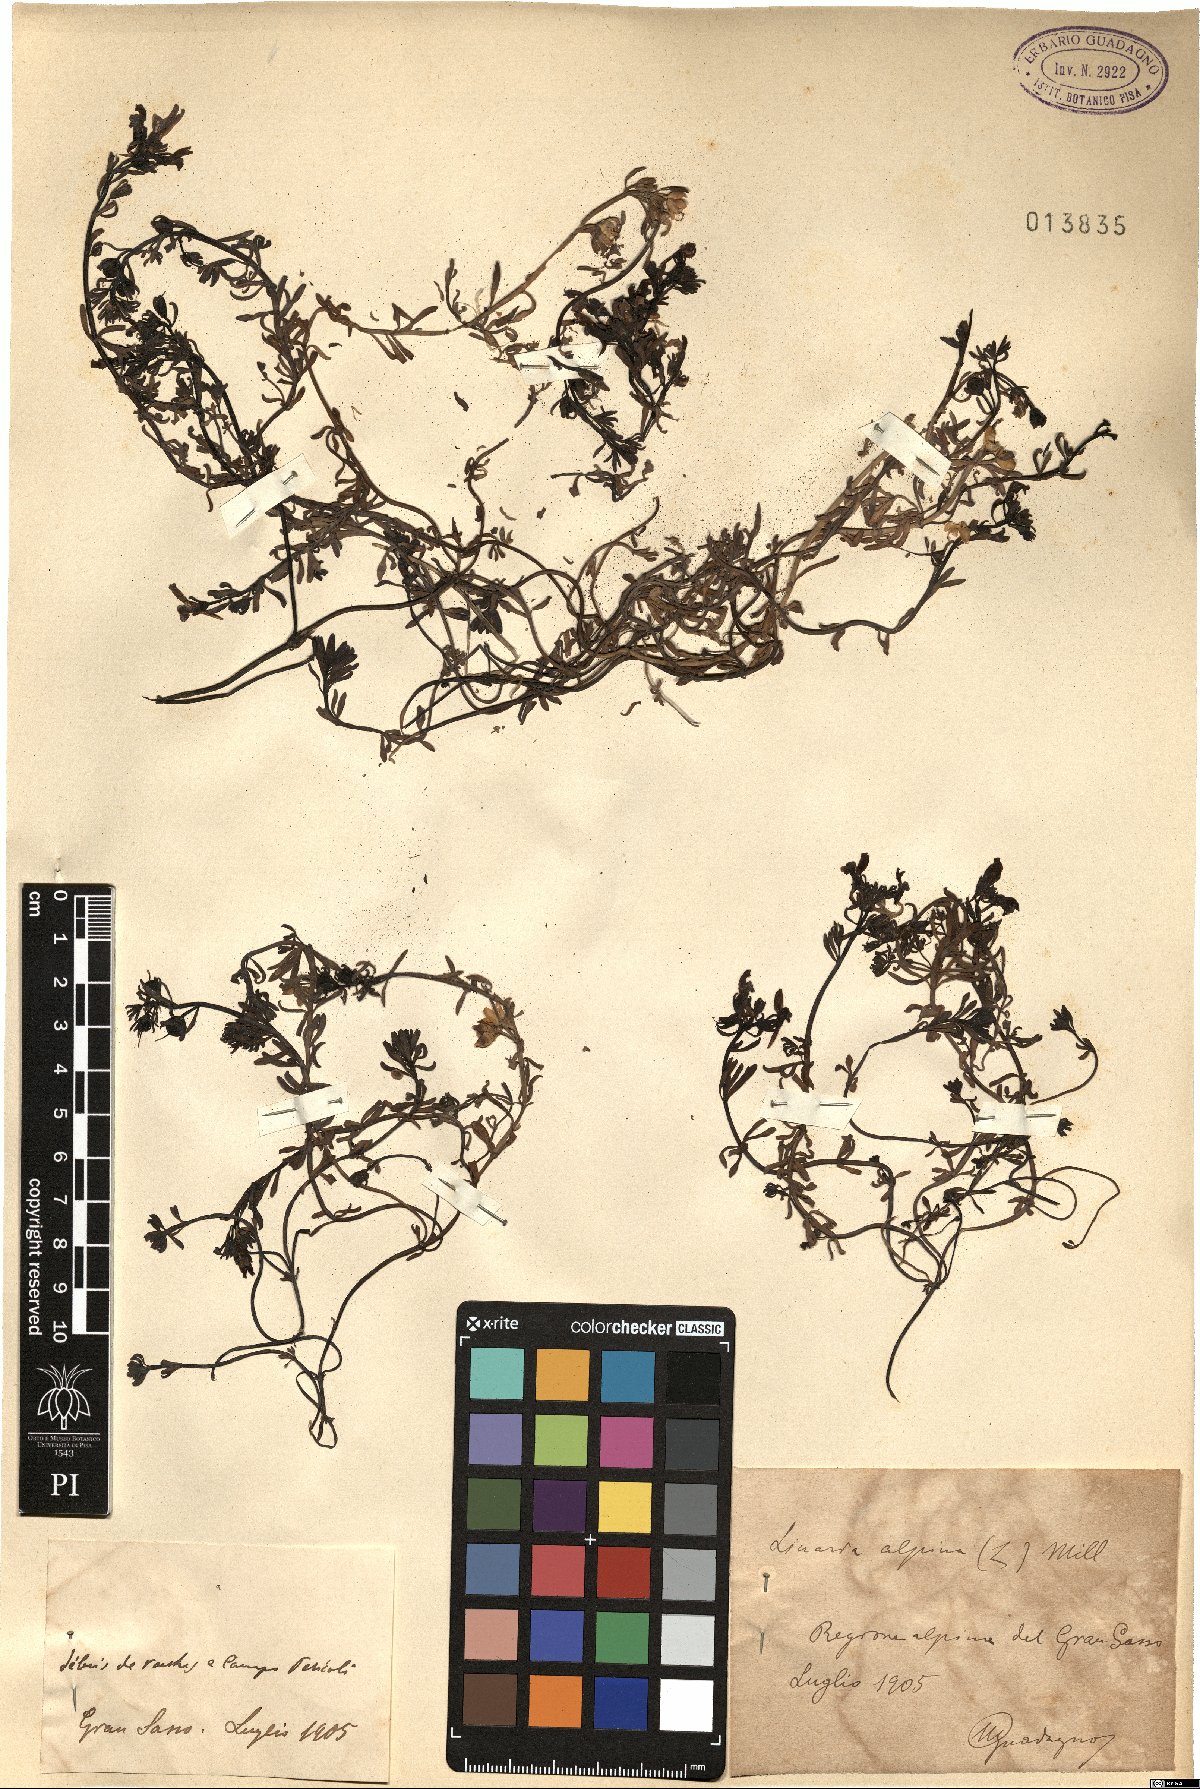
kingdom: Plantae
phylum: Tracheophyta
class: Magnoliopsida
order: Lamiales
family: Plantaginaceae
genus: Linaria
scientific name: Linaria alpina
